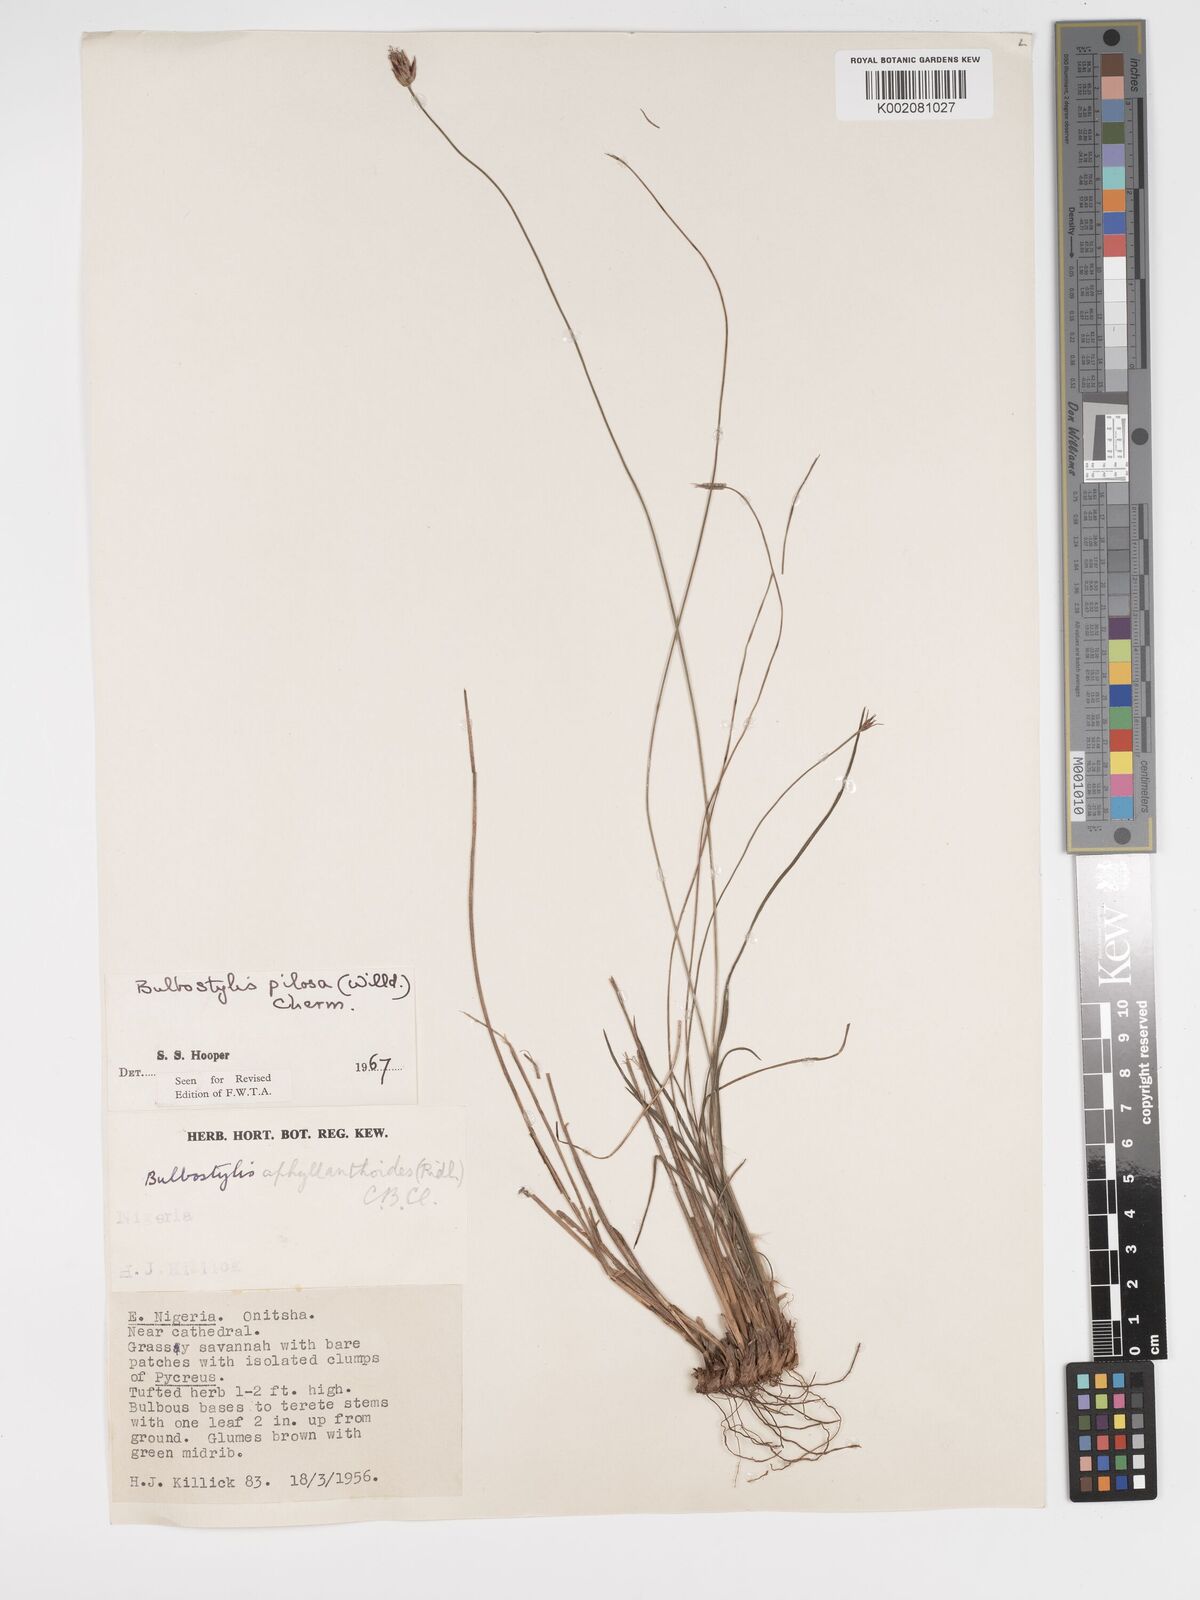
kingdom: Plantae
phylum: Tracheophyta
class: Liliopsida
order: Poales
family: Cyperaceae
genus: Bulbostylis
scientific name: Bulbostylis pilosa
